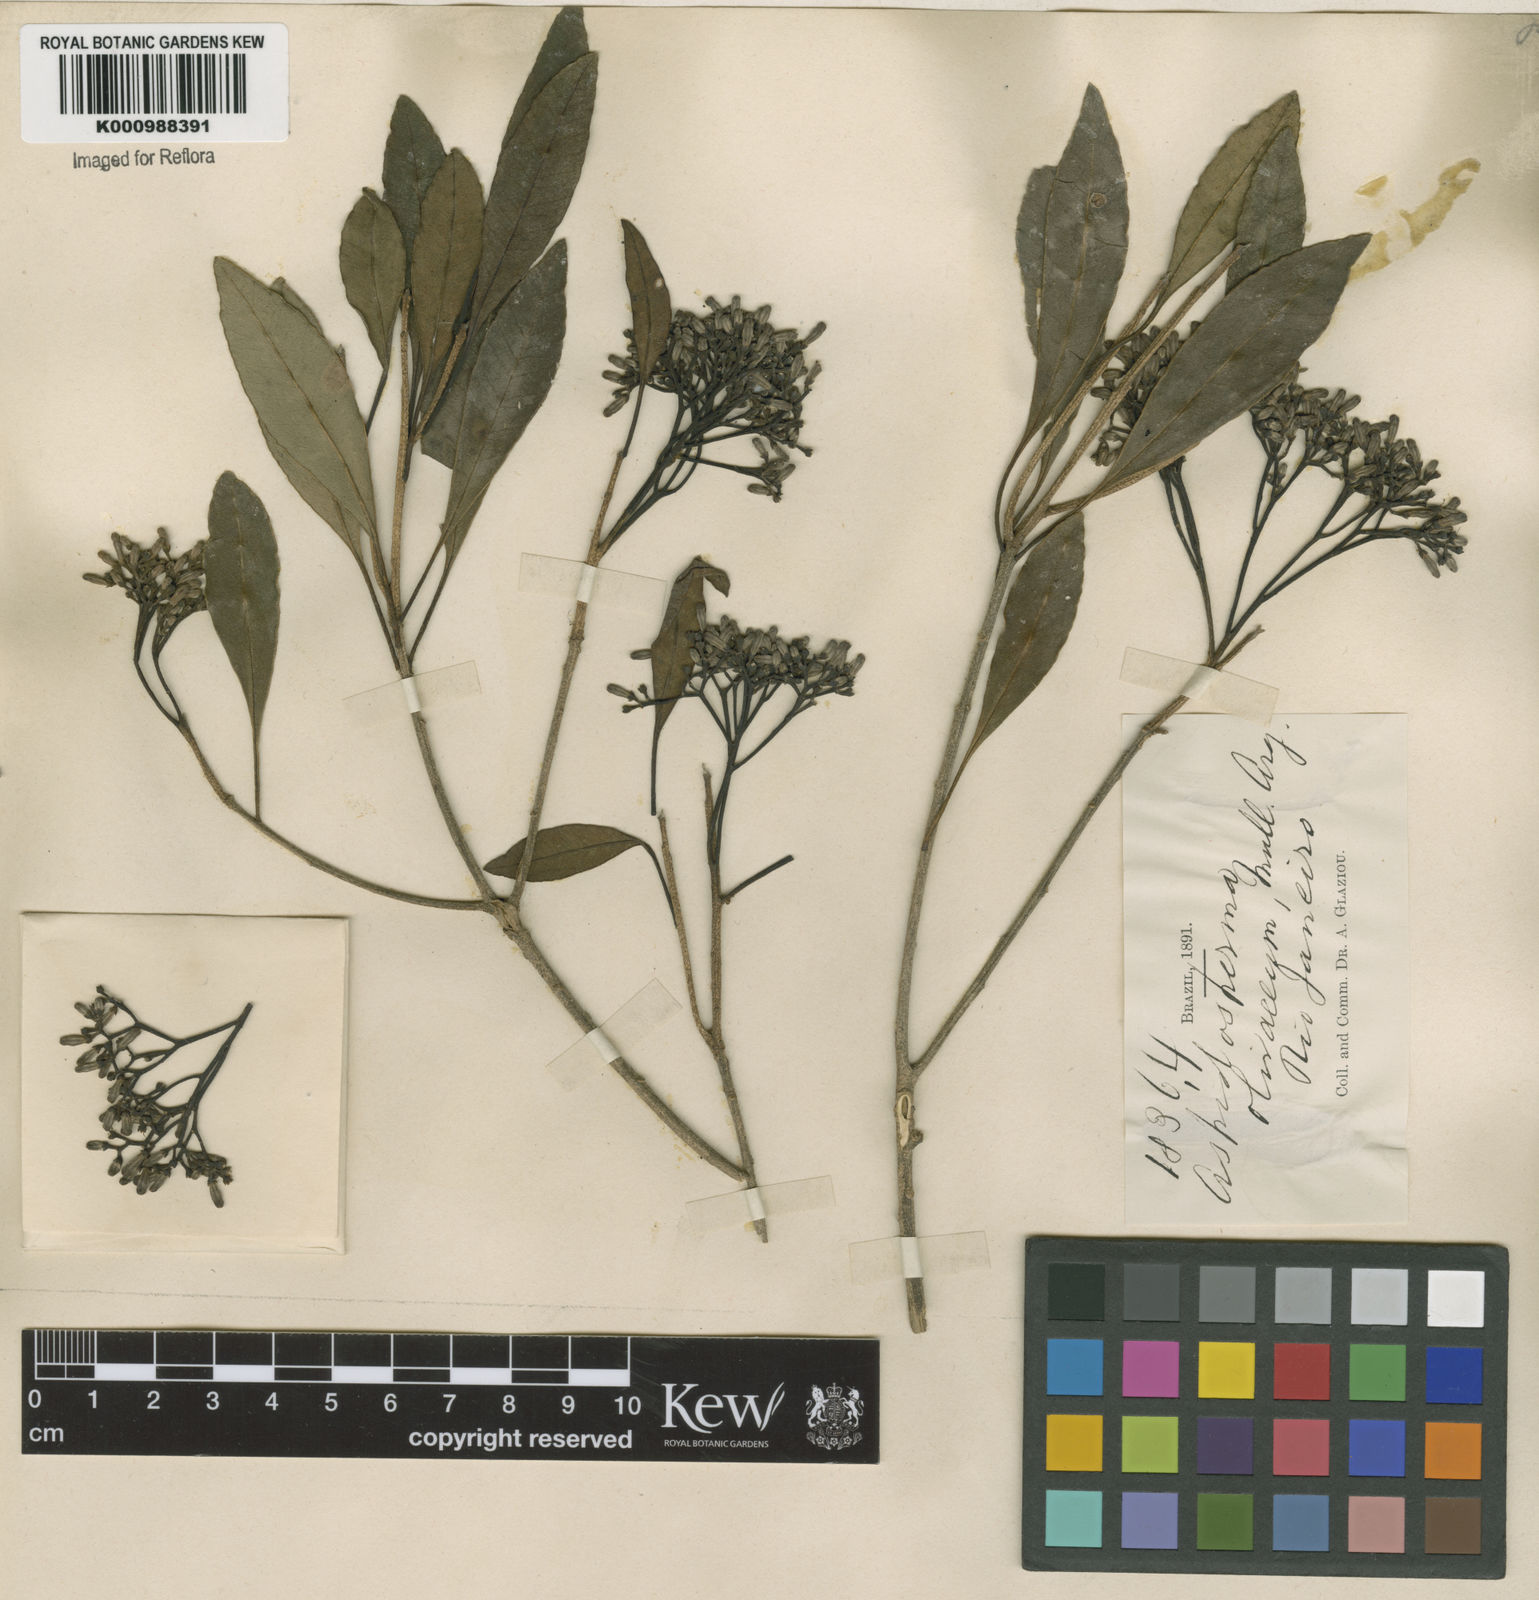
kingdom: Plantae
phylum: Tracheophyta
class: Magnoliopsida
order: Gentianales
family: Apocynaceae
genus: Aspidosperma
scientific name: Aspidosperma
